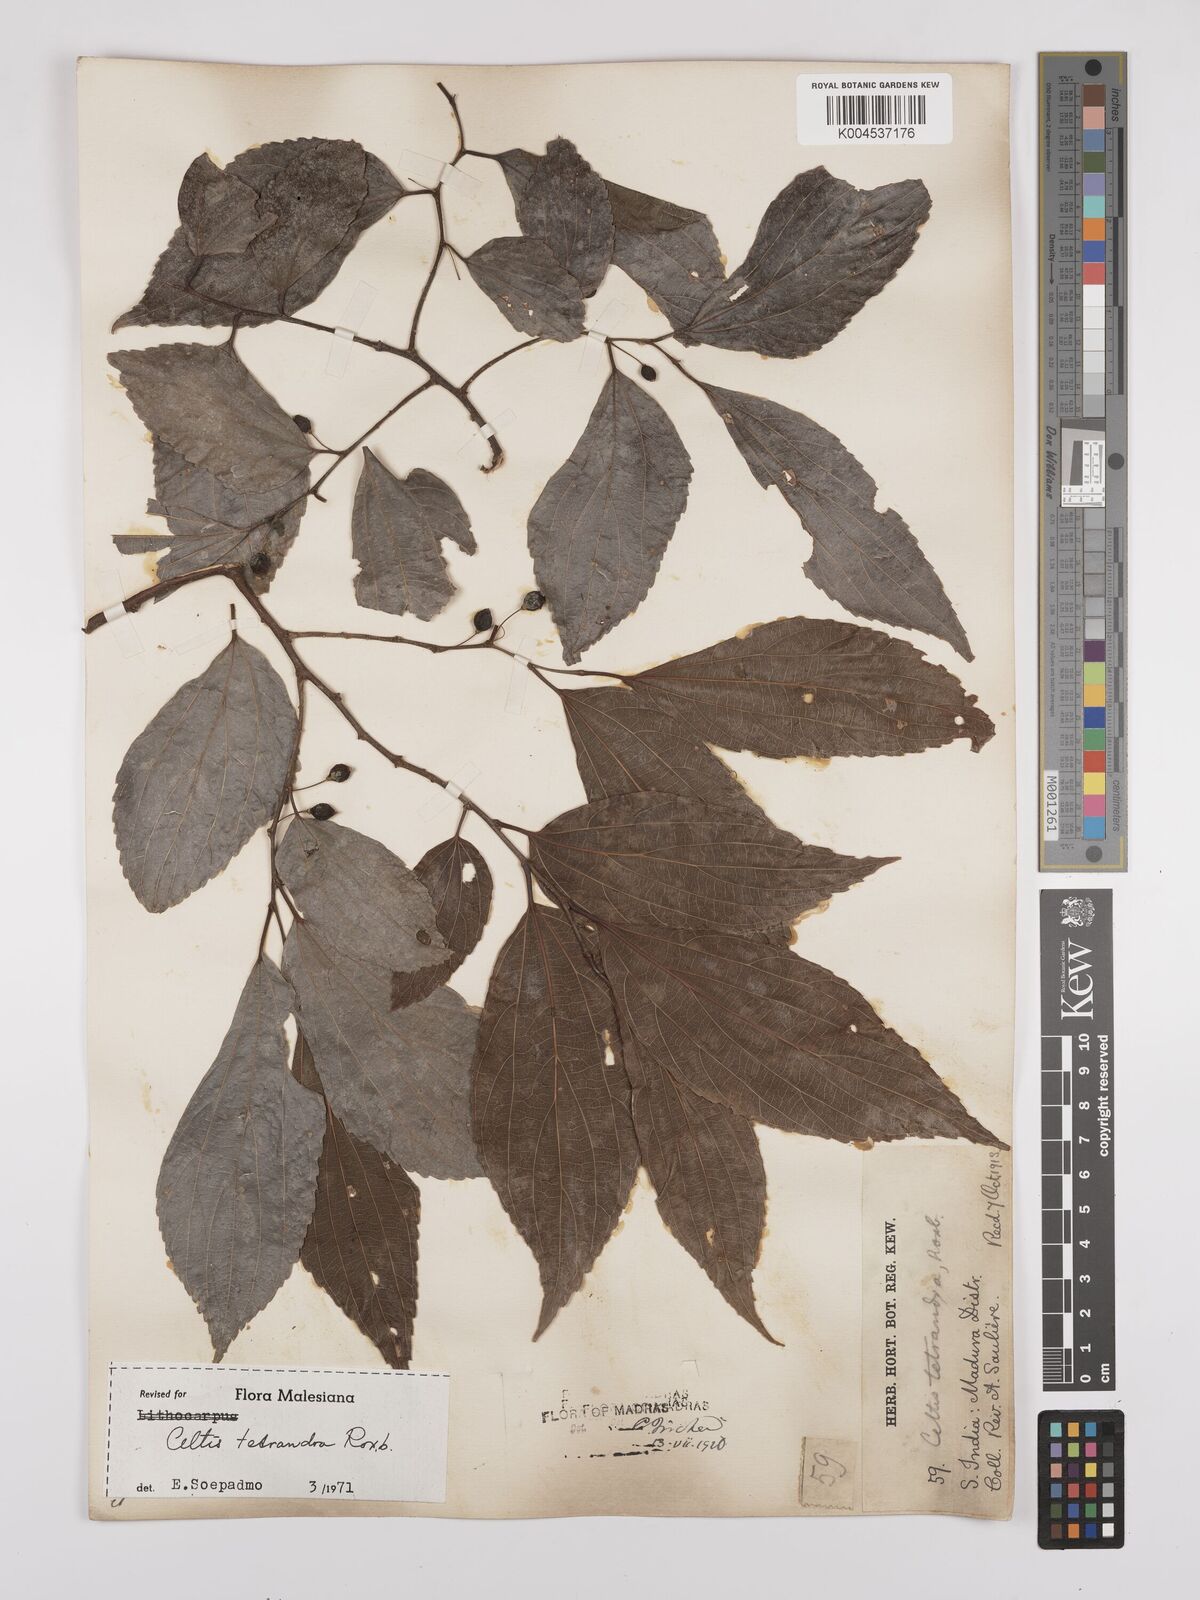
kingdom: Plantae
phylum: Tracheophyta
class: Magnoliopsida
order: Rosales
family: Cannabaceae
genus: Celtis
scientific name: Celtis tetrandra
